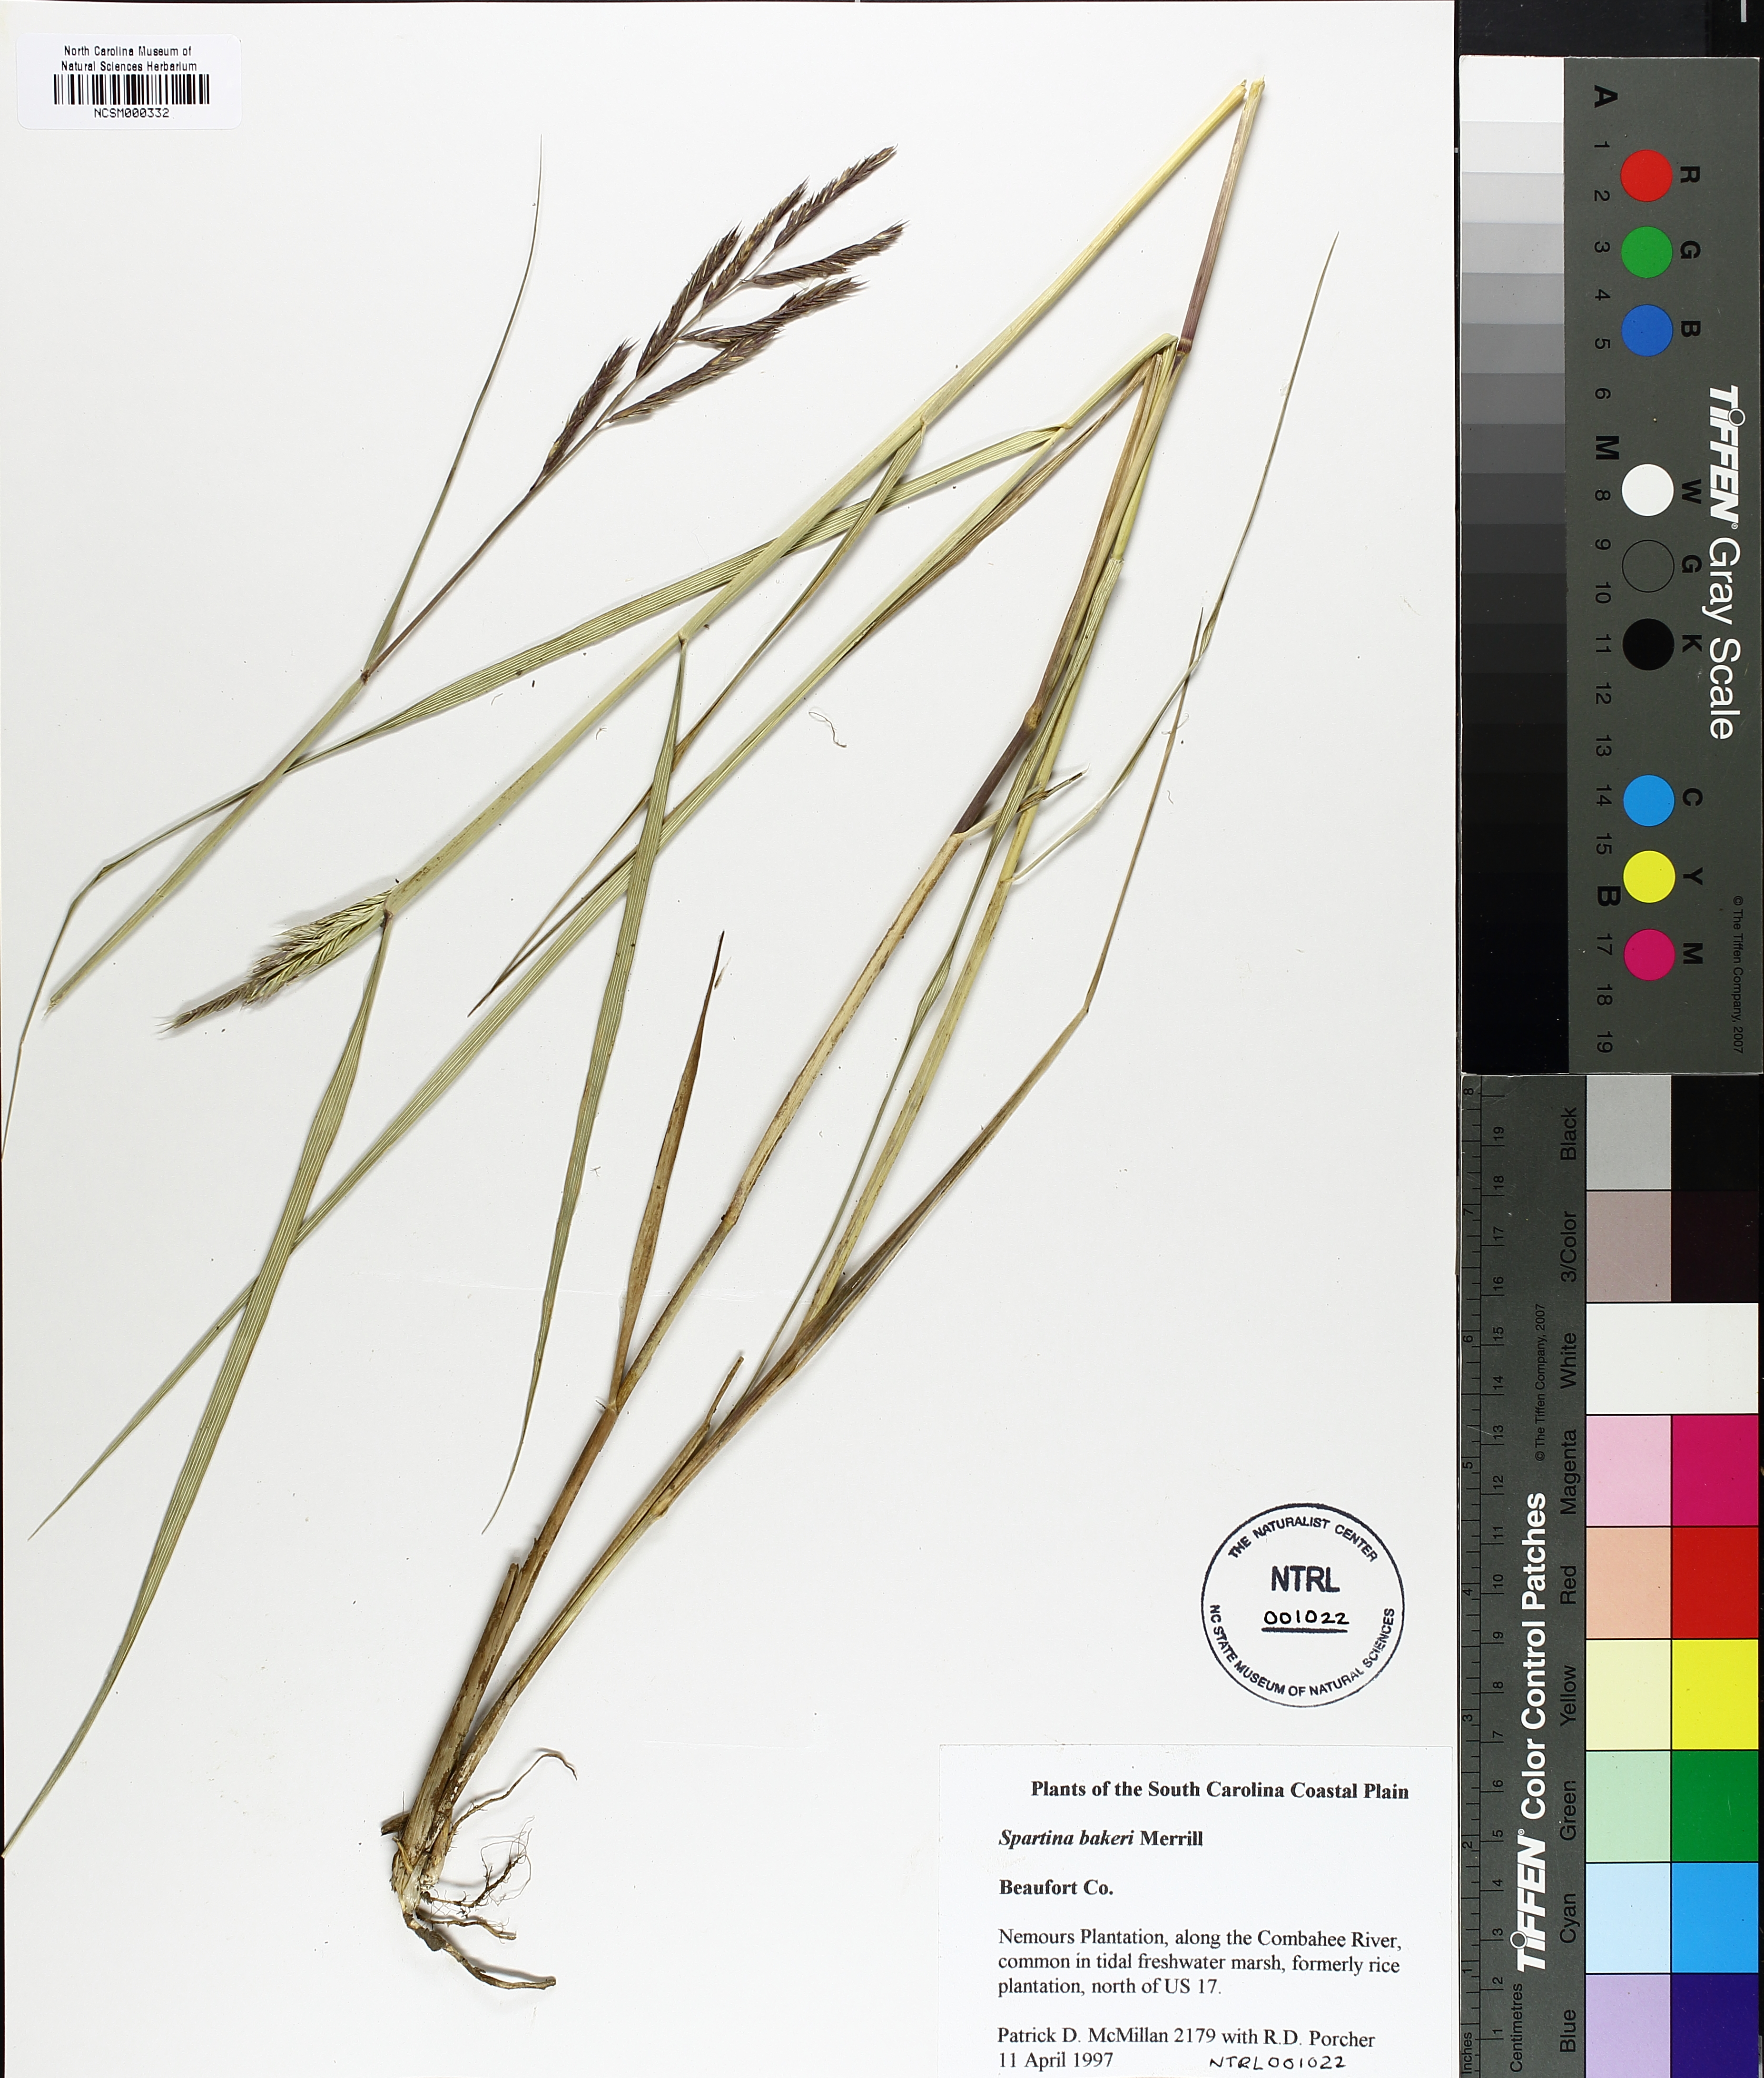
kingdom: Plantae
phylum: Tracheophyta
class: Liliopsida
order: Poales
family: Poaceae
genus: Sporobolus
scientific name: Sporobolus bakeri
